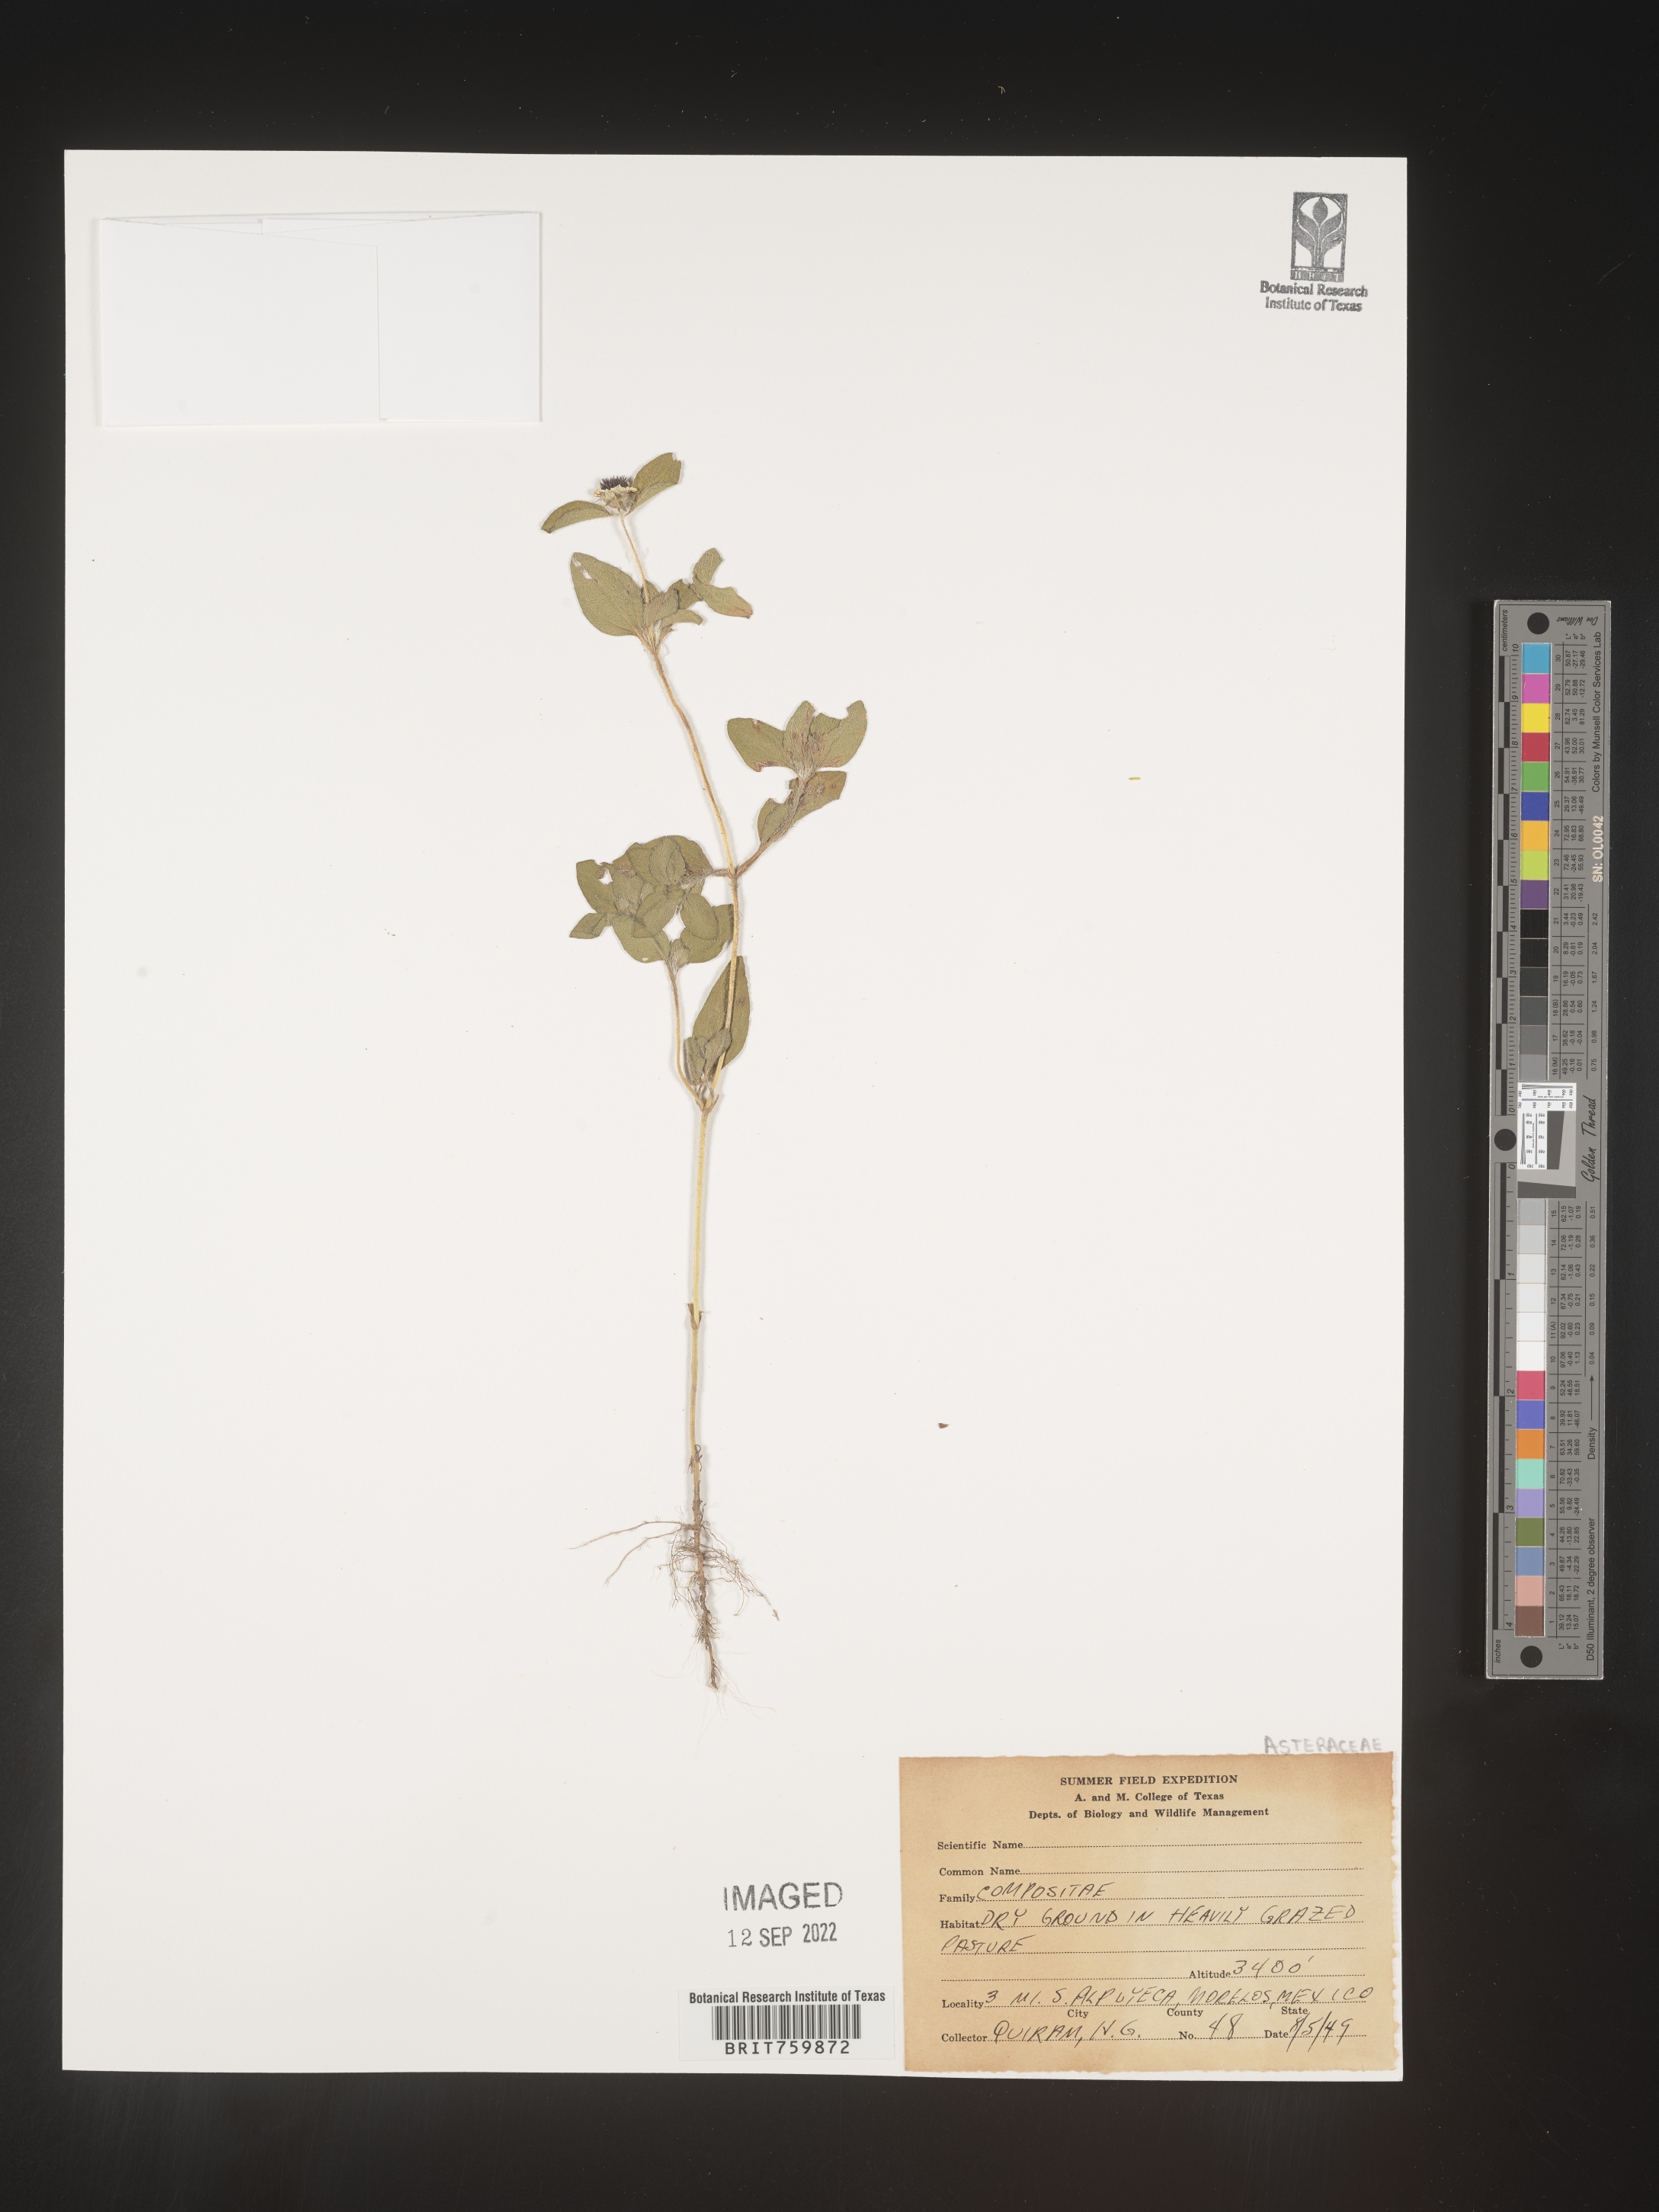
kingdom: Plantae
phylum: Tracheophyta
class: Magnoliopsida
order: Asterales
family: Asteraceae
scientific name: Asteraceae
